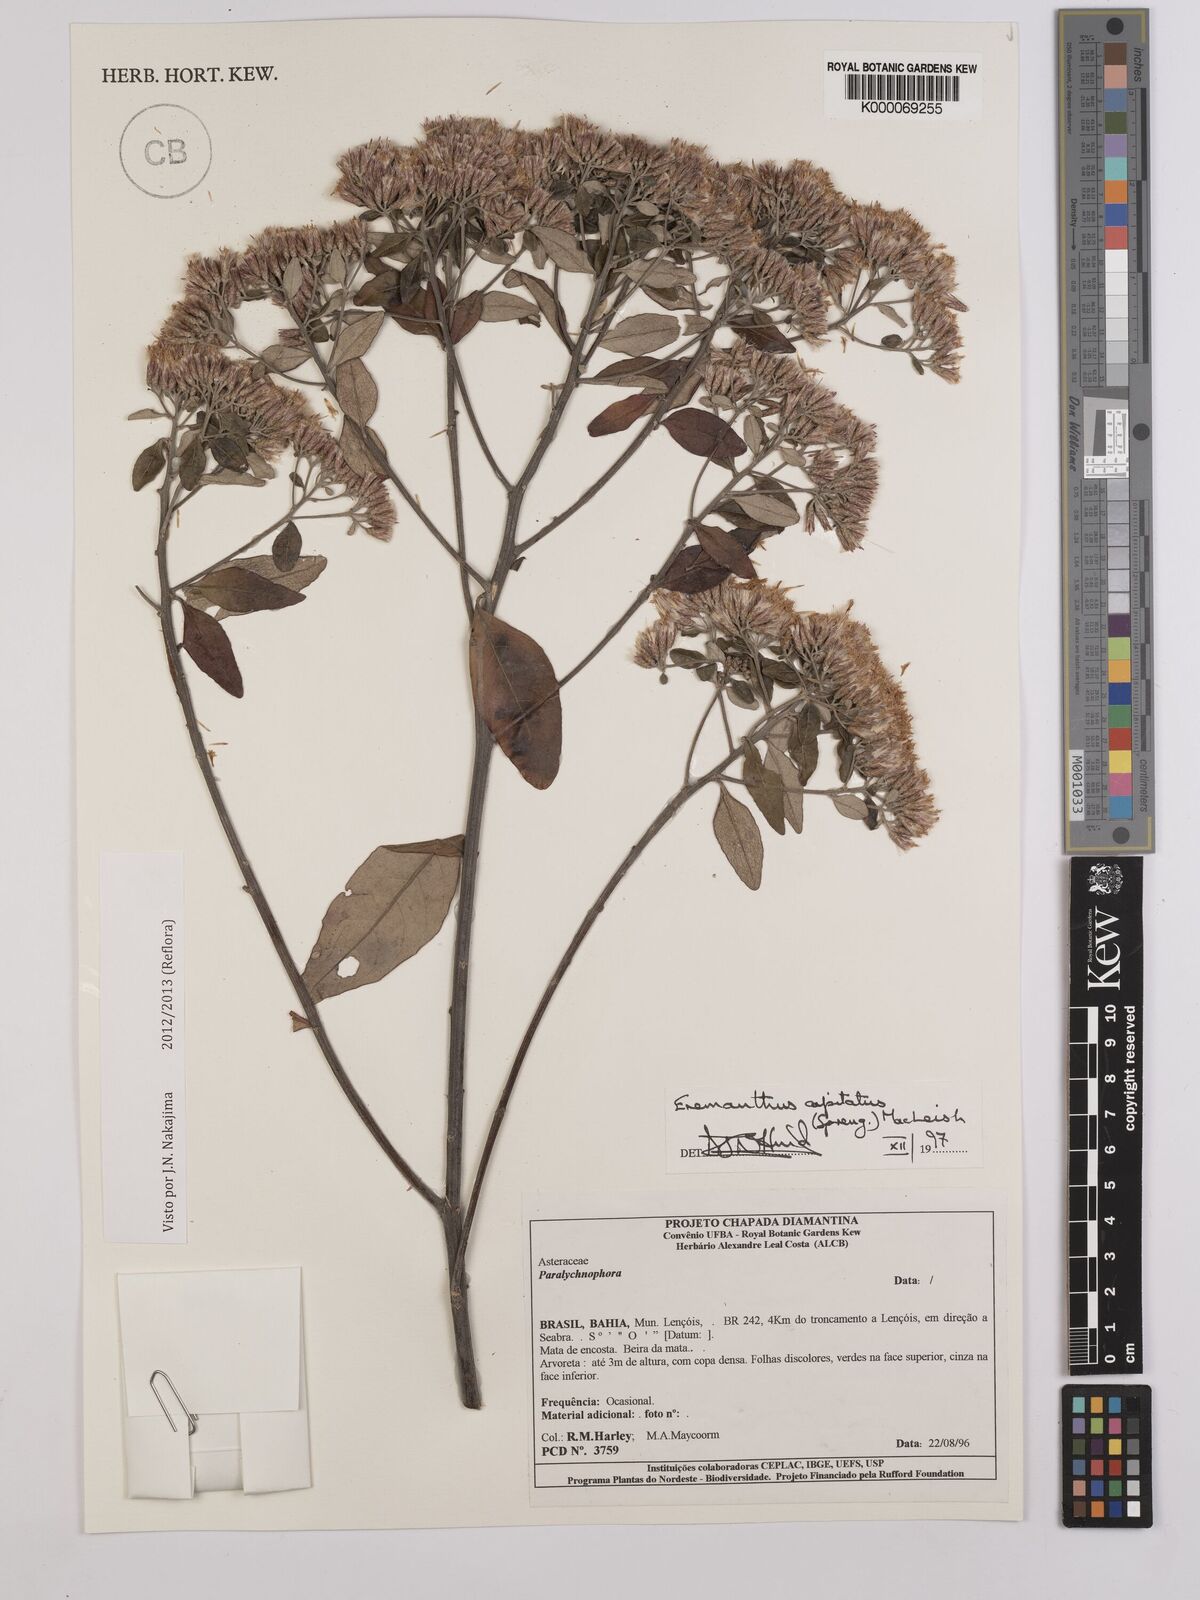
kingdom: Plantae
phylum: Tracheophyta
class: Magnoliopsida
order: Asterales
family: Asteraceae
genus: Eremanthus
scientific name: Eremanthus capitatus
